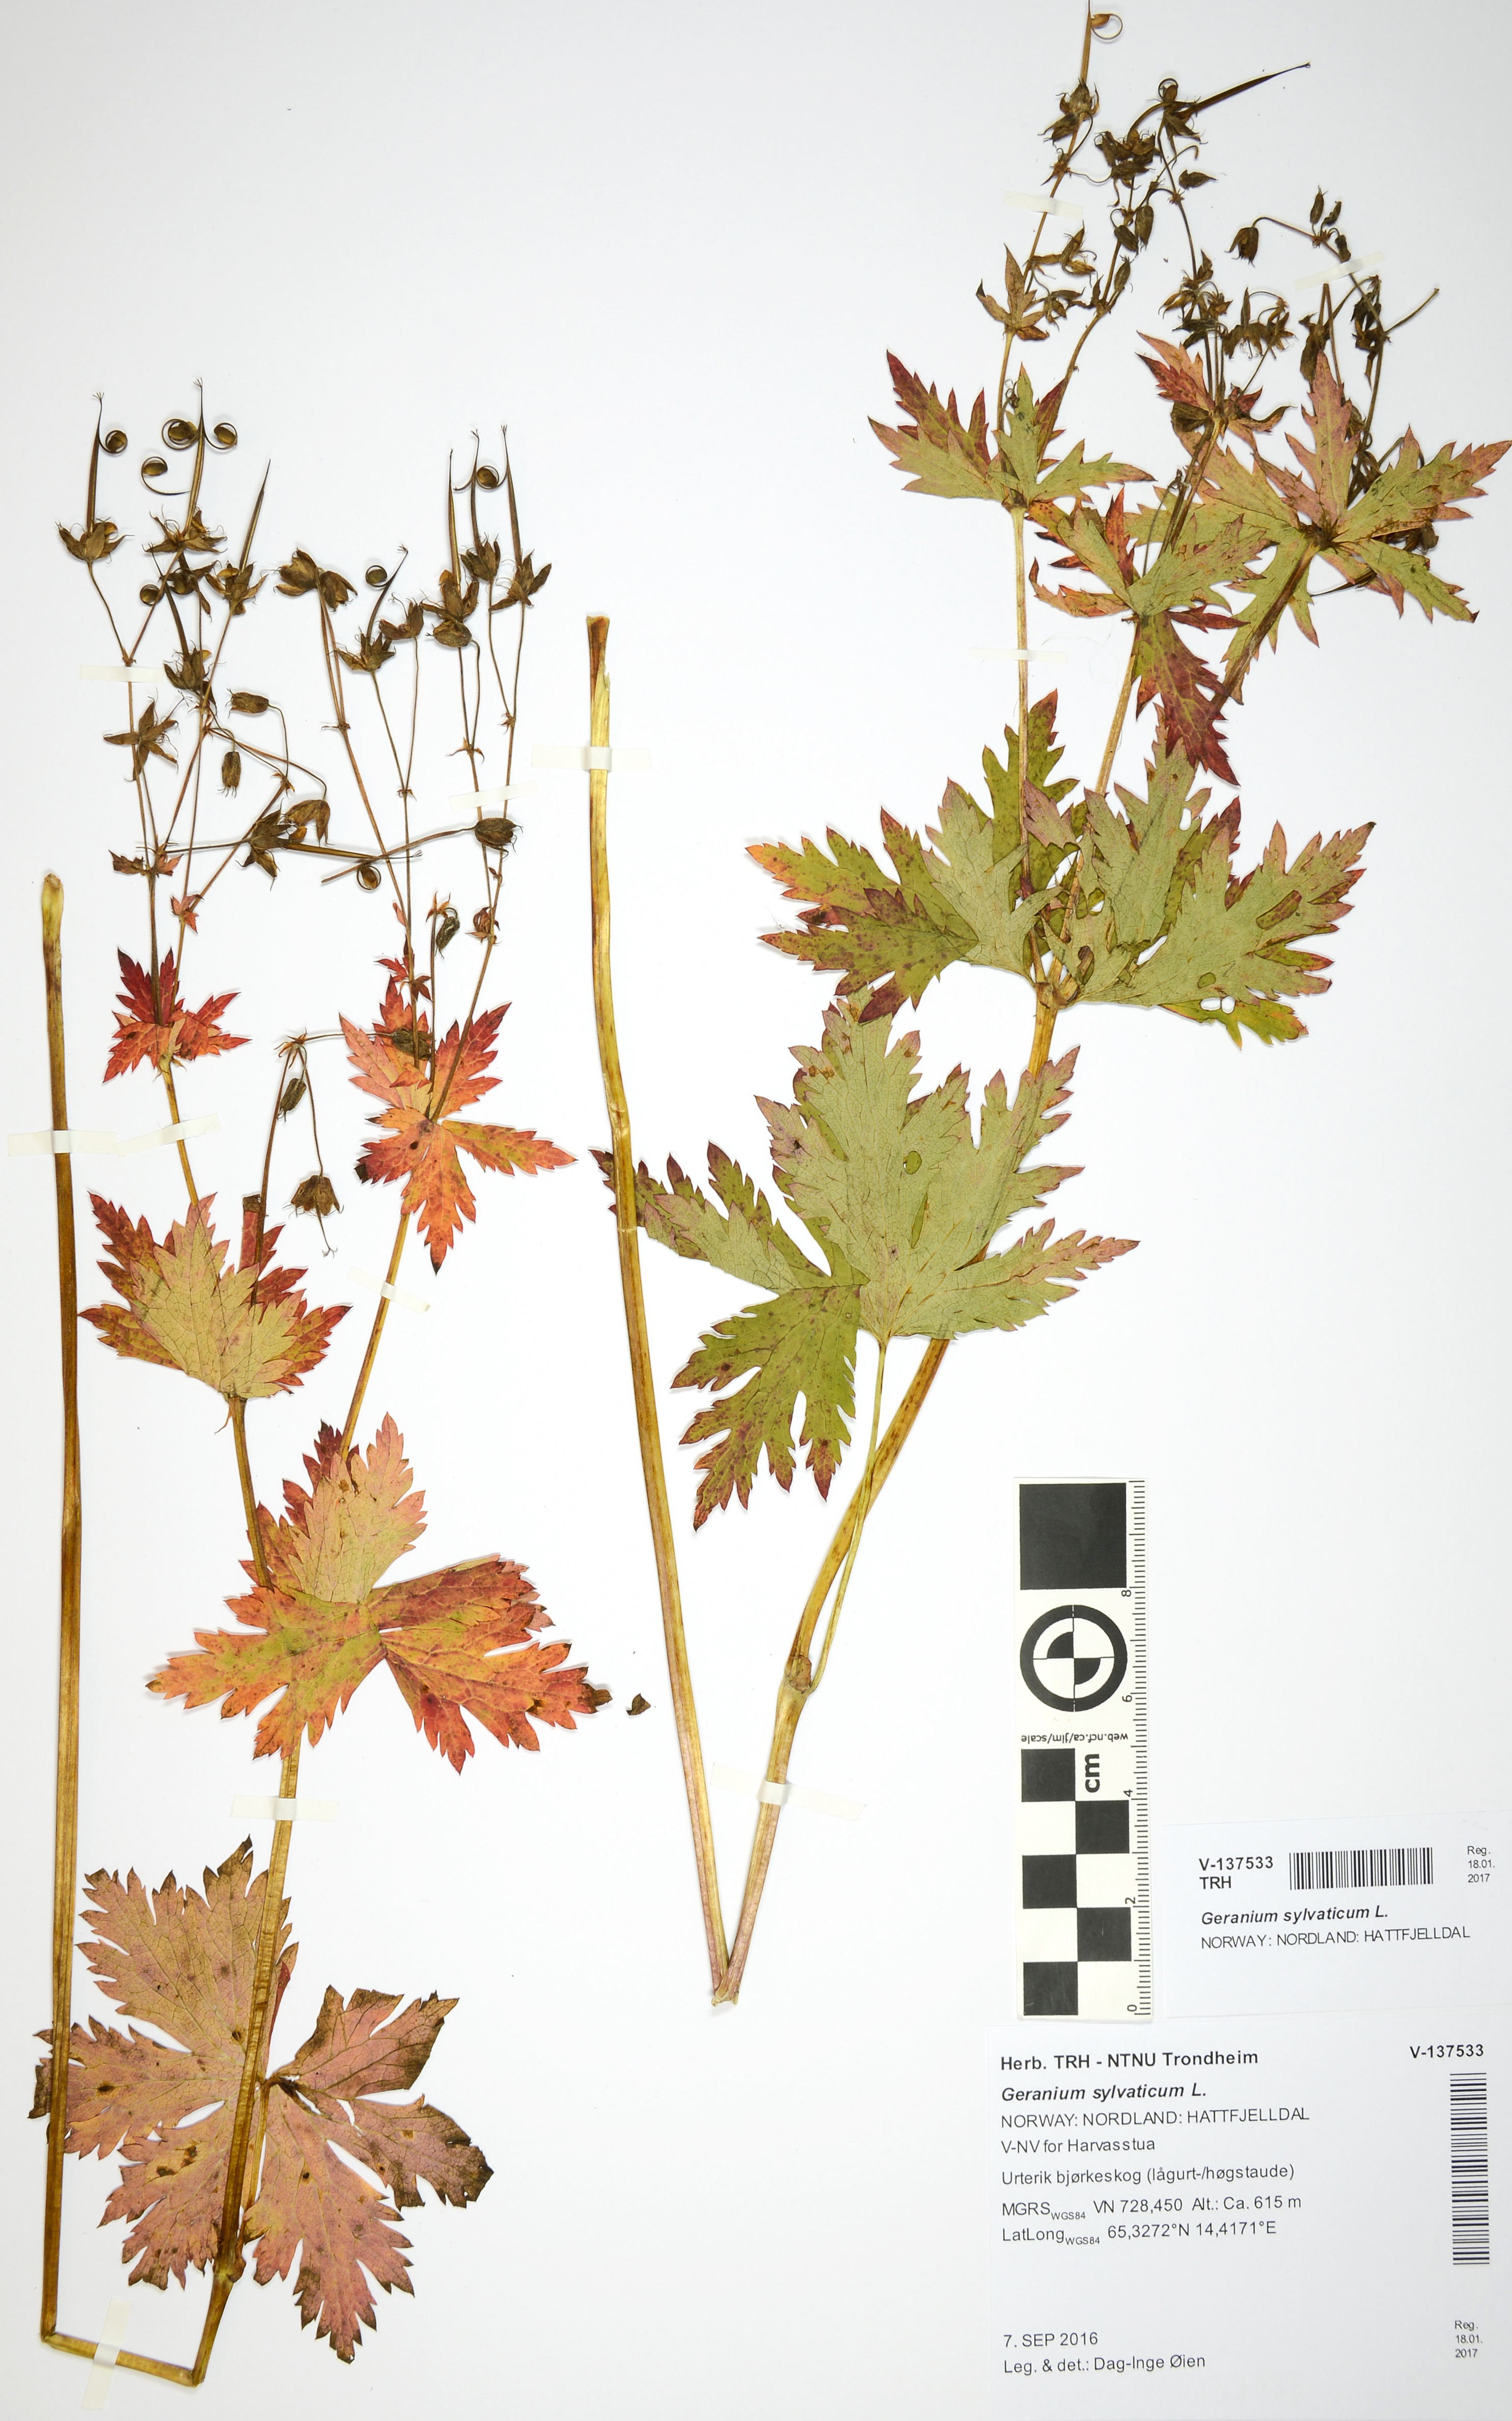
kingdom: Plantae
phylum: Tracheophyta
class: Magnoliopsida
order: Geraniales
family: Geraniaceae
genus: Geranium
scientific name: Geranium sylvaticum
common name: Wood crane's-bill
